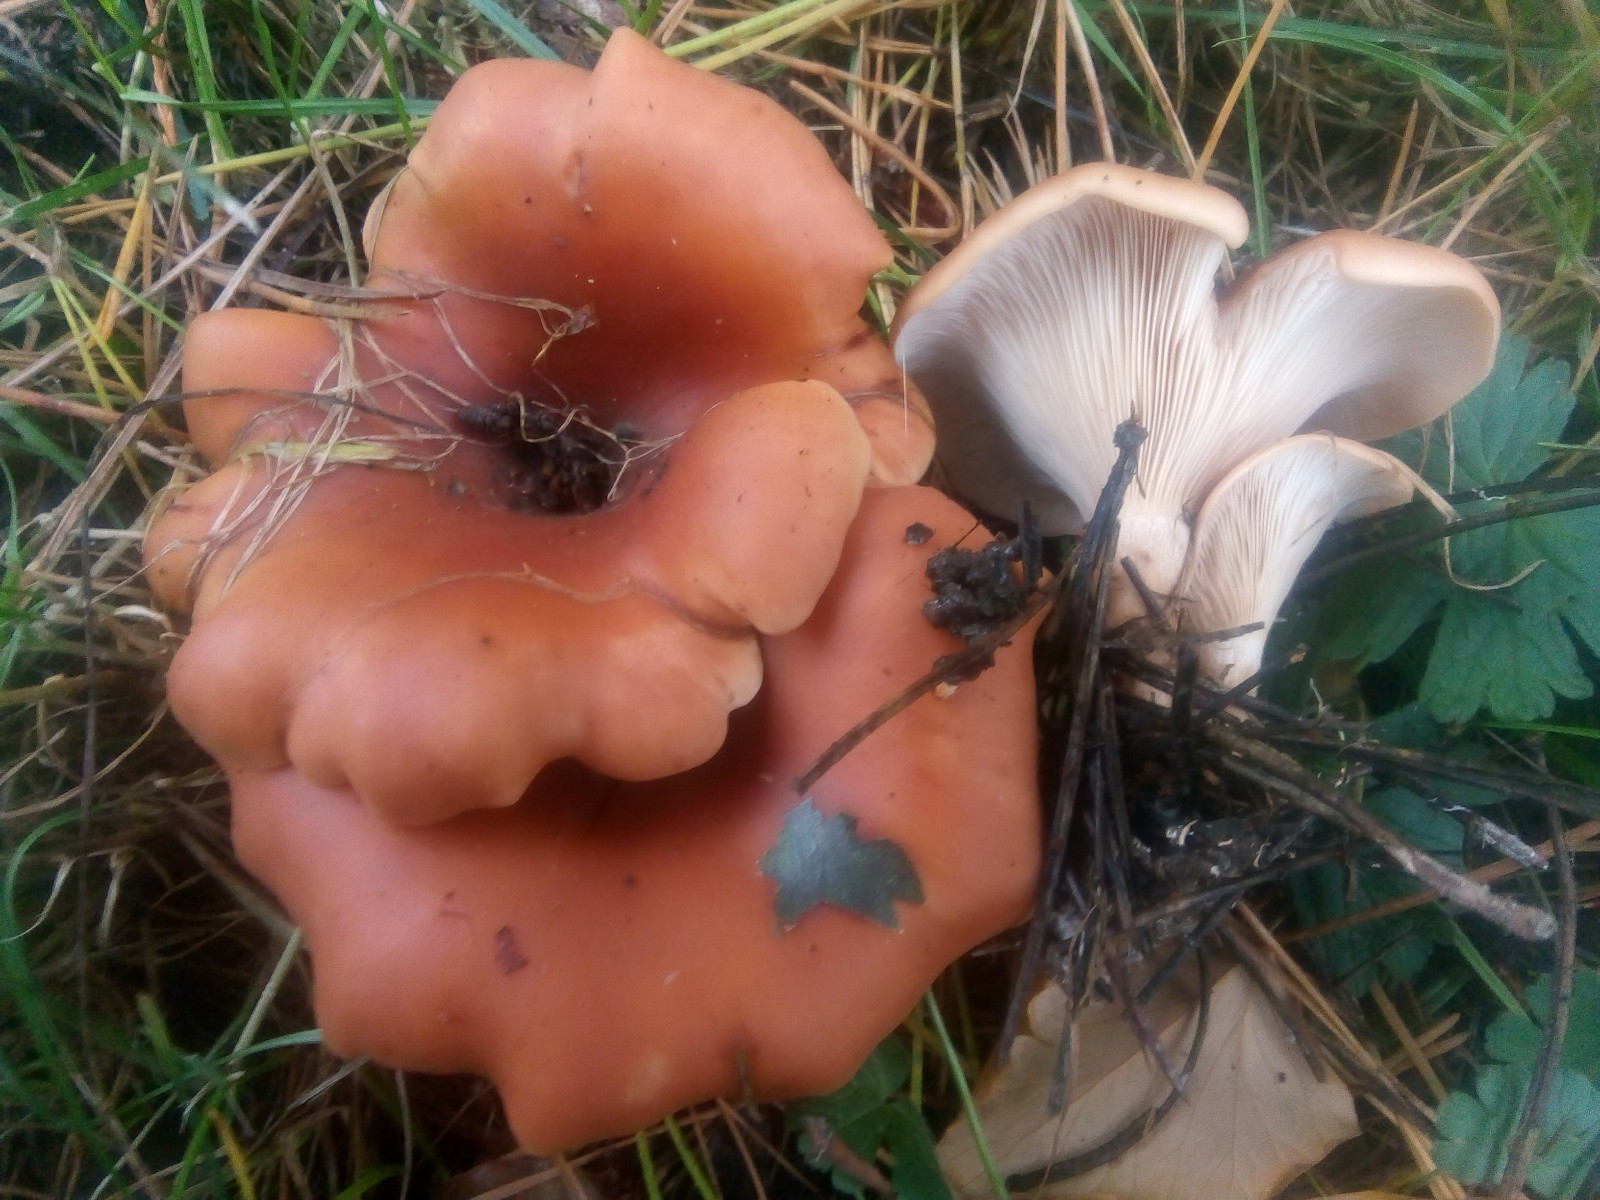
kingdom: Fungi
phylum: Basidiomycota
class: Agaricomycetes
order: Agaricales
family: Tricholomataceae
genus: Paralepista
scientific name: Paralepista flaccida
